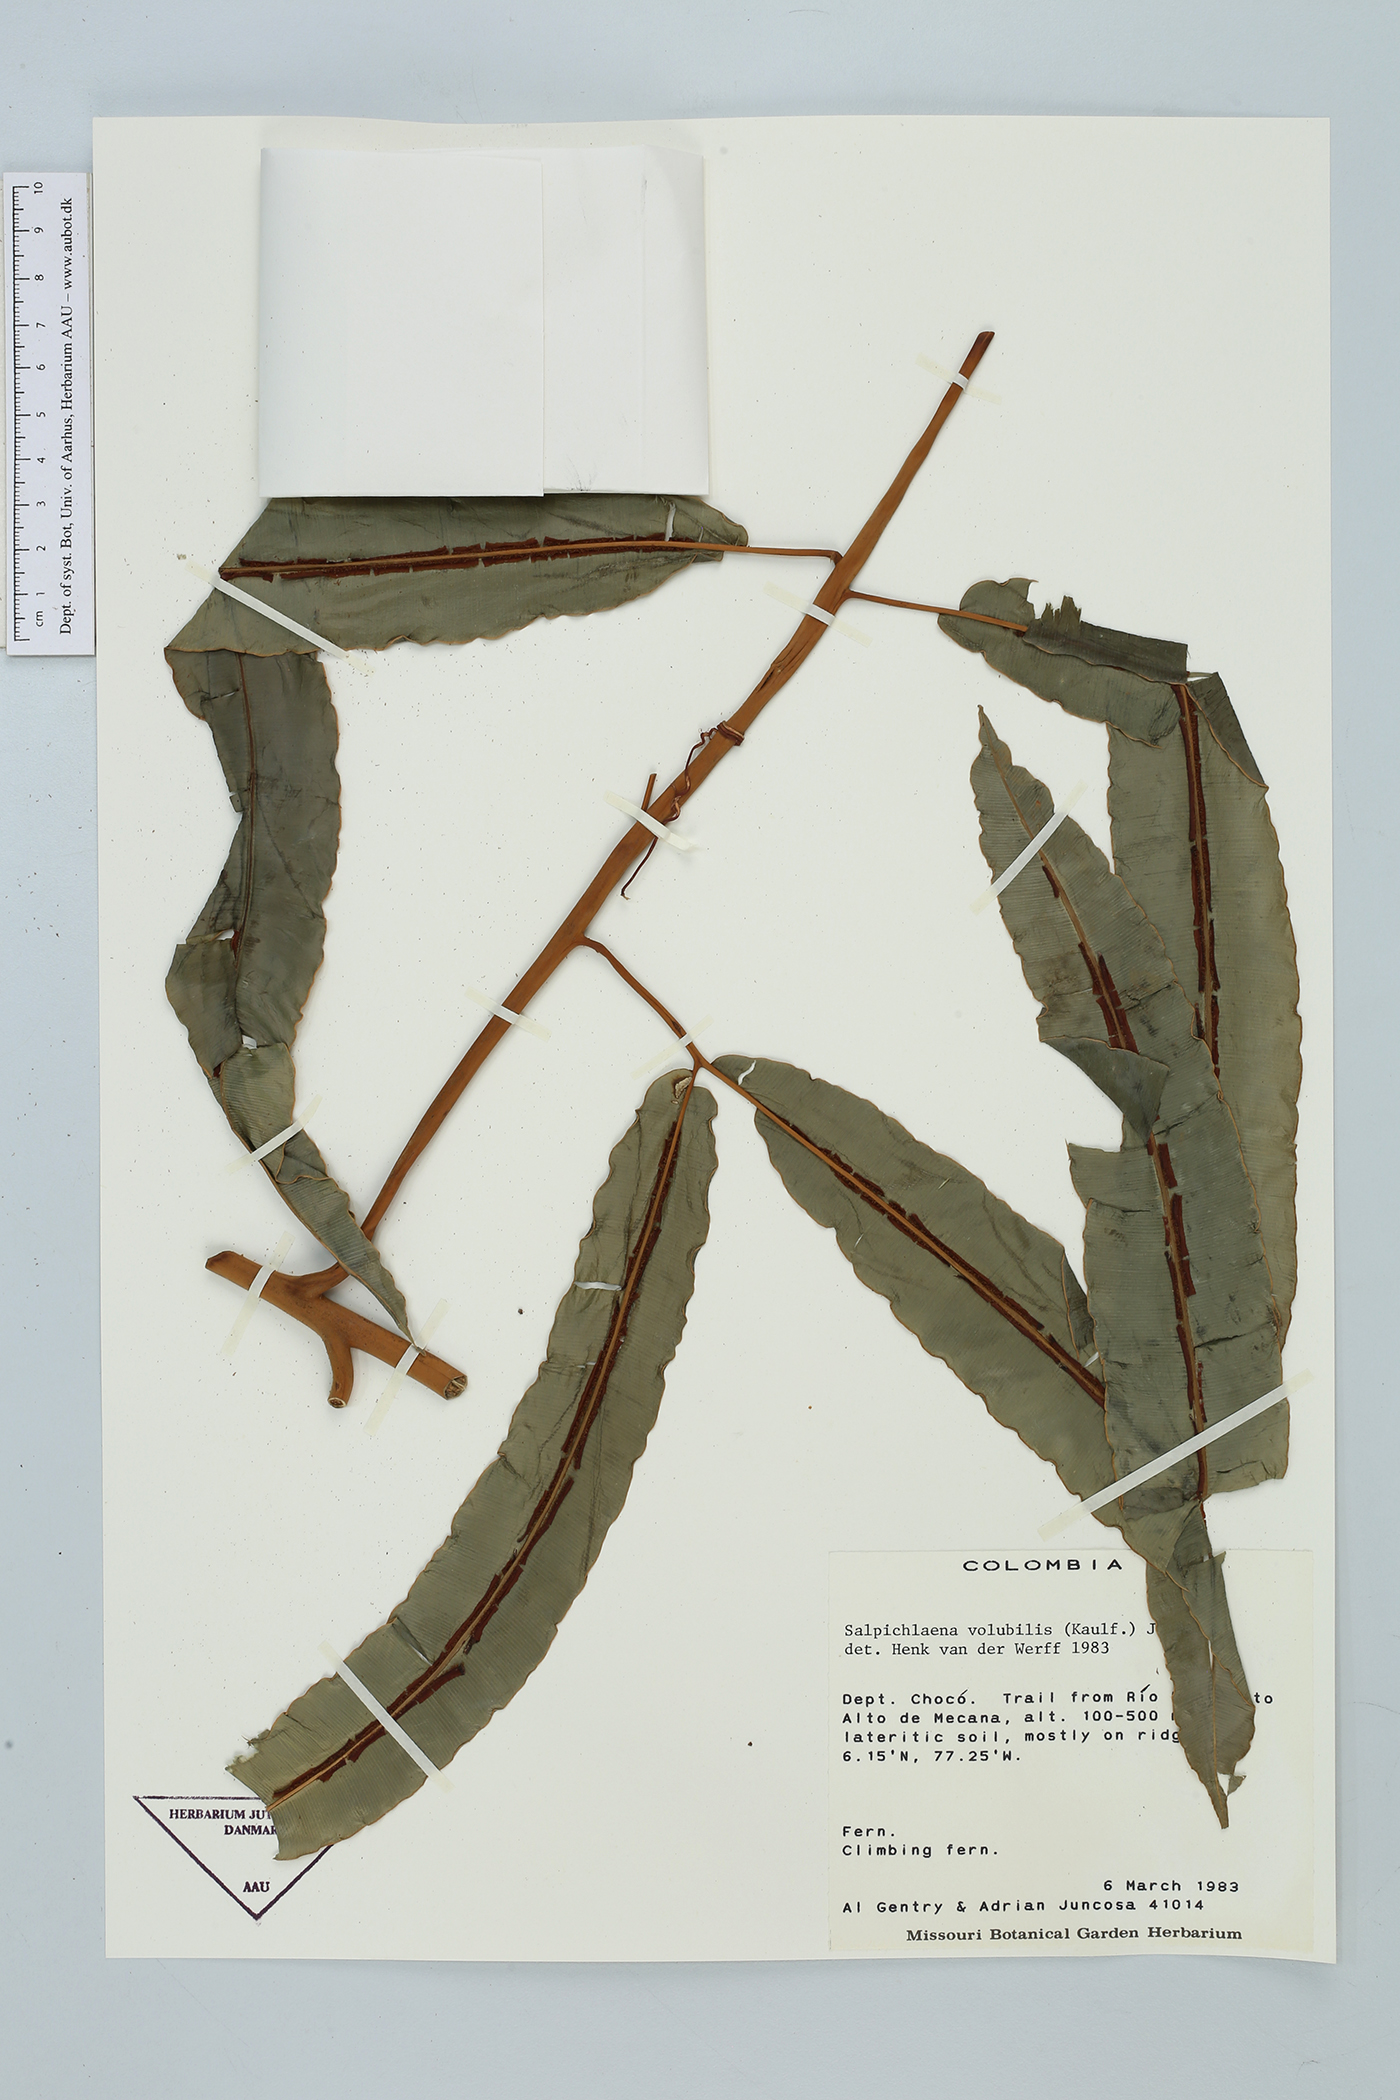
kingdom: Plantae
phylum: Tracheophyta
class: Polypodiopsida
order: Polypodiales
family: Blechnaceae
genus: Salpichlaena
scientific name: Salpichlaena volubilis
